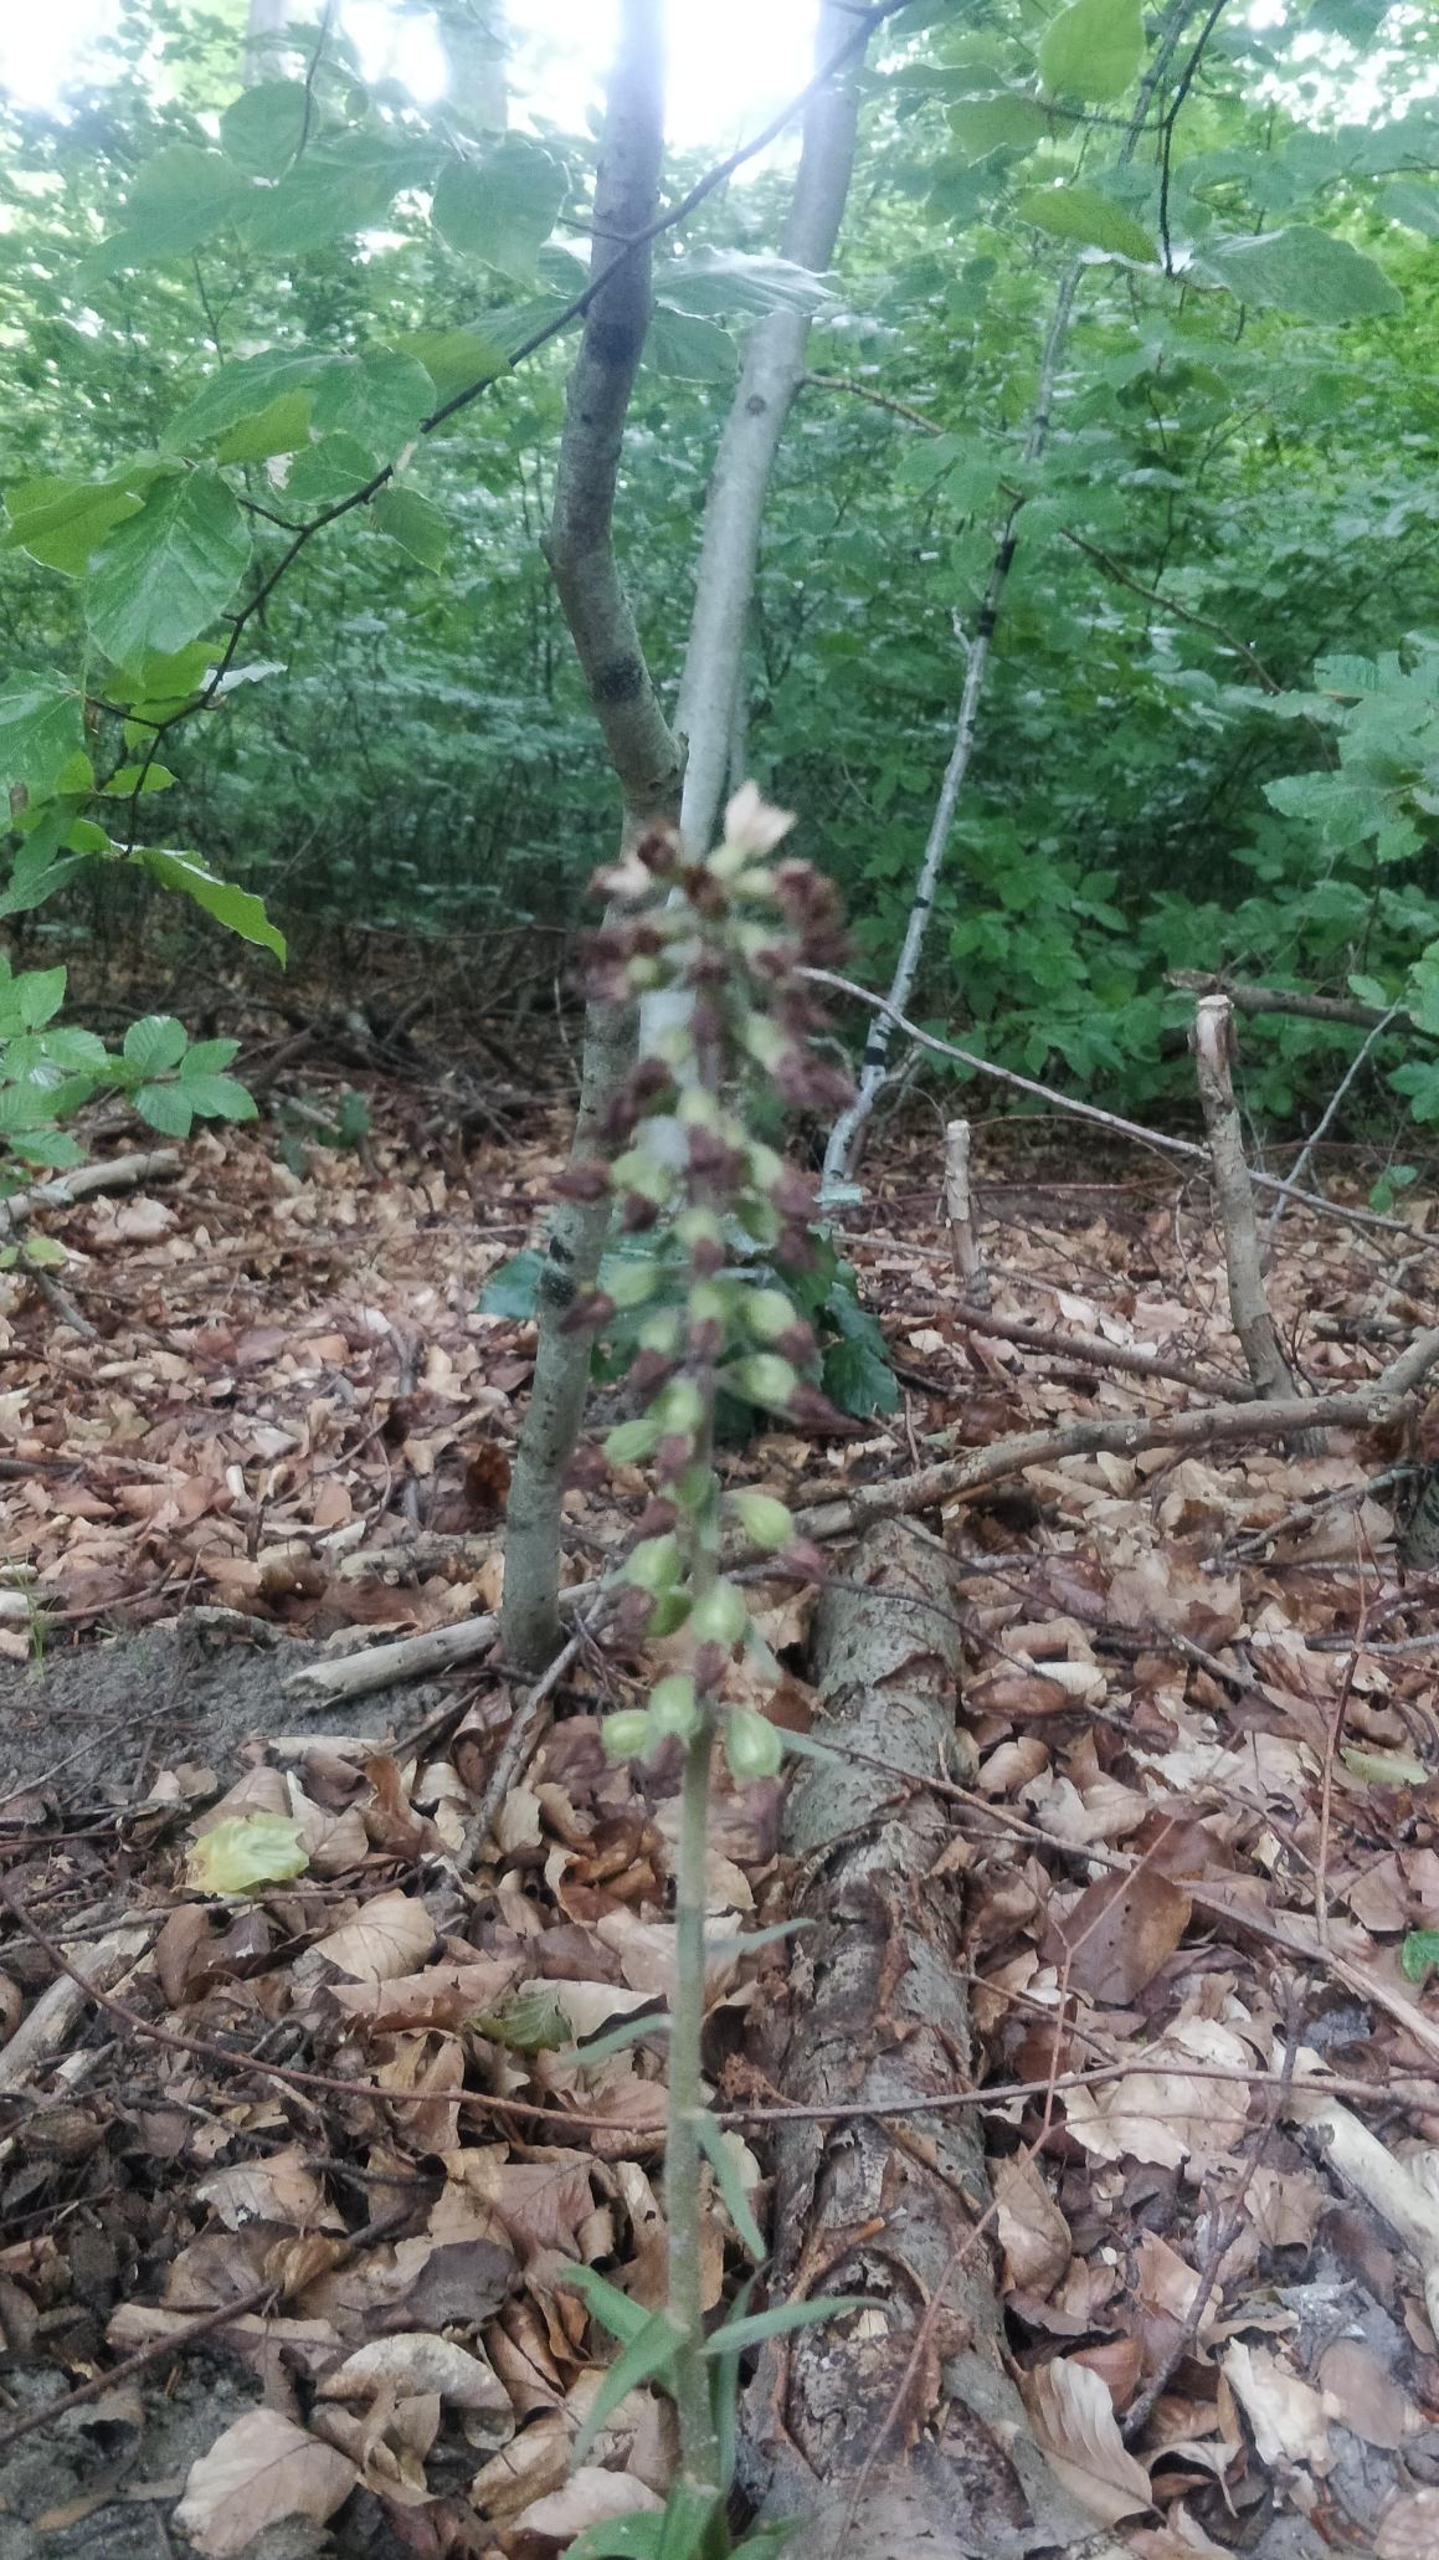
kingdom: Plantae
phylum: Tracheophyta
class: Liliopsida
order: Asparagales
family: Orchidaceae
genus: Epipactis
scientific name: Epipactis purpurata
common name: Tætblomstret hullæbe
